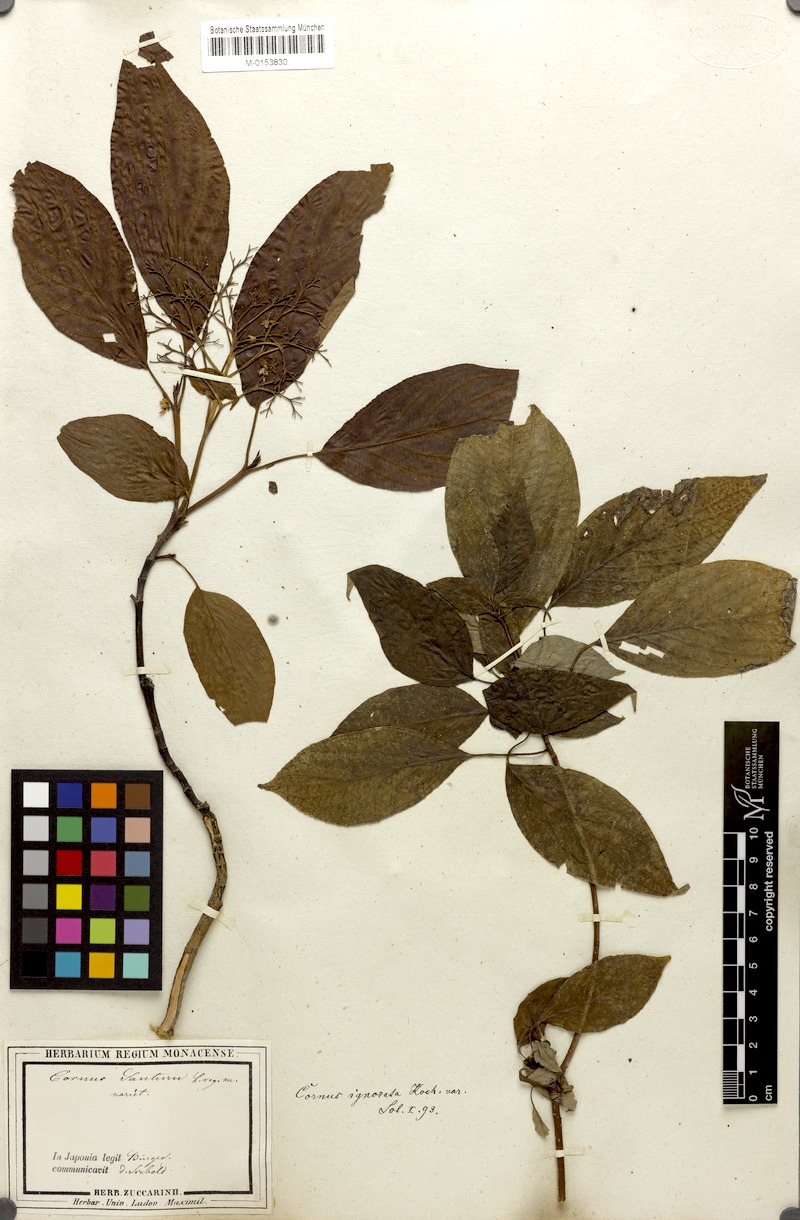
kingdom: Plantae
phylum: Tracheophyta
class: Magnoliopsida
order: Cornales
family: Cornaceae
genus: Cornus
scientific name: Cornus amomum
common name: Silky dogwood
